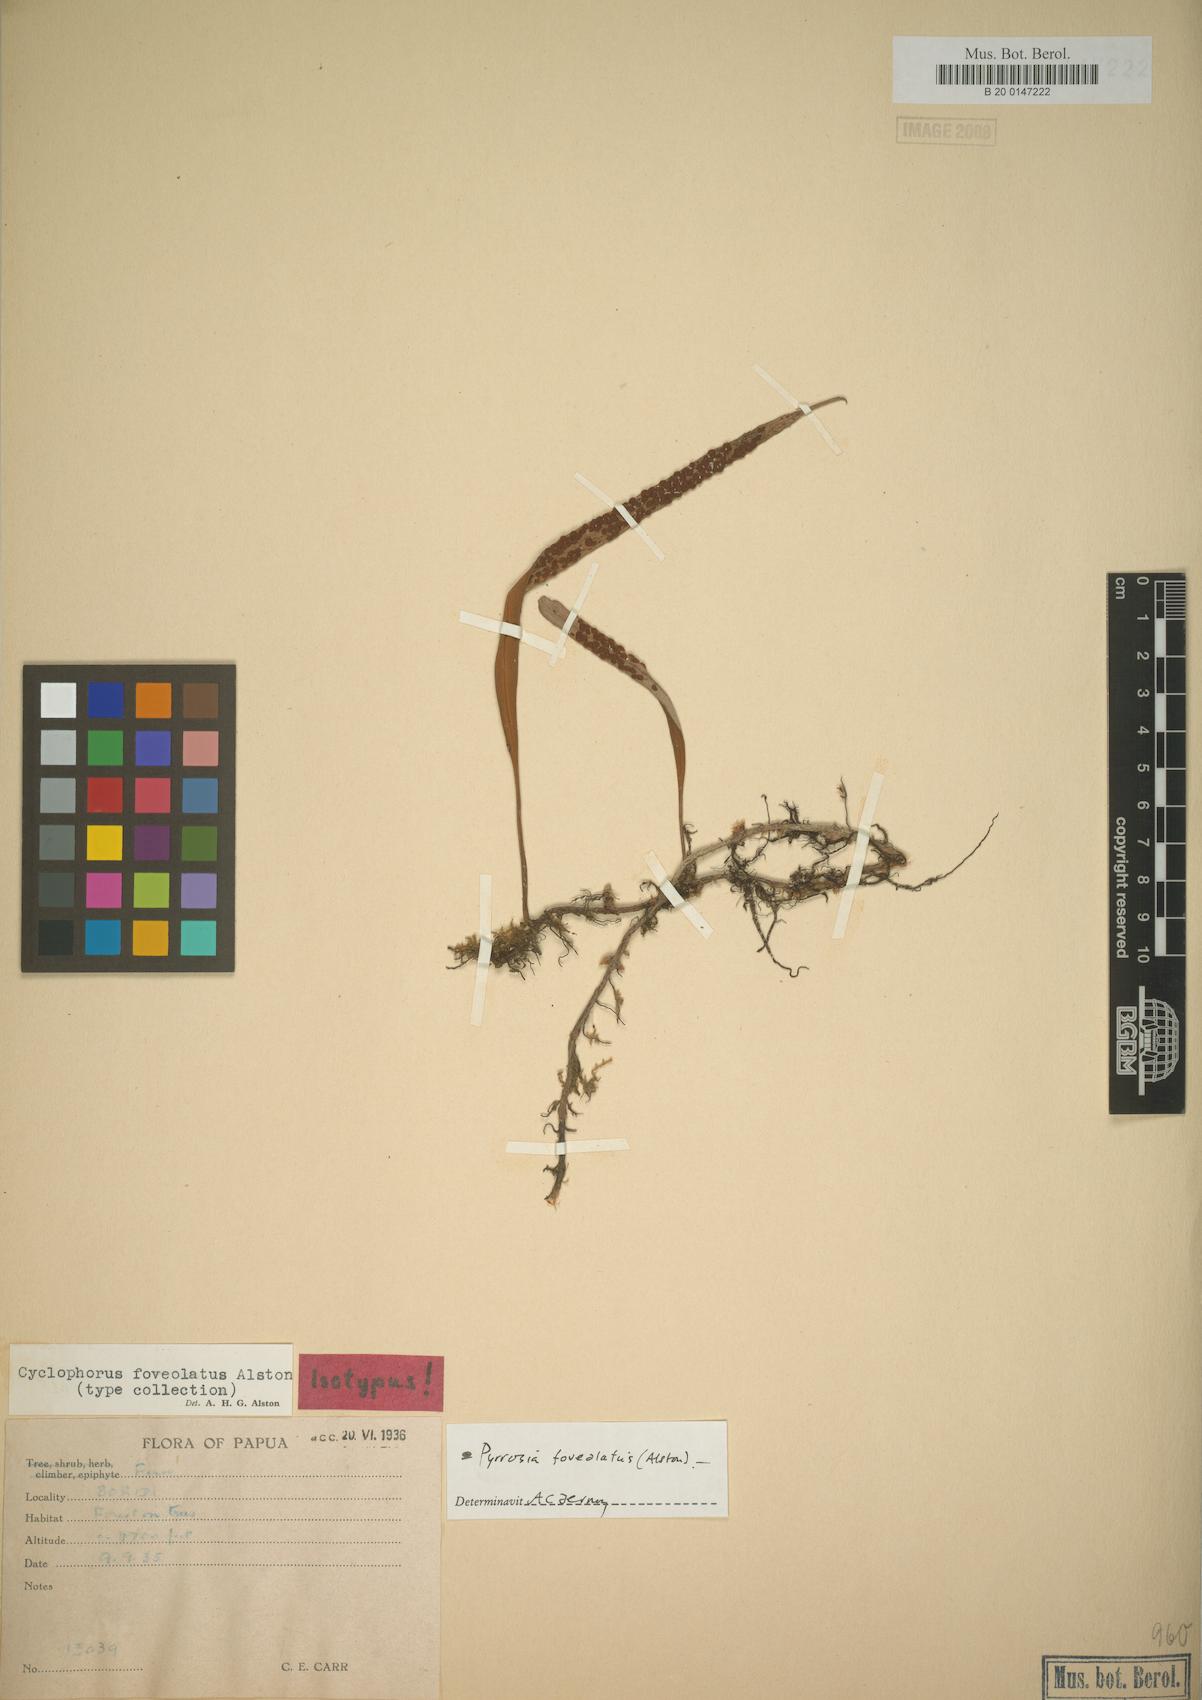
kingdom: Plantae
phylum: Tracheophyta
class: Polypodiopsida
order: Polypodiales
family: Polypodiaceae
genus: Pyrrosia
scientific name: Pyrrosia foveolata
